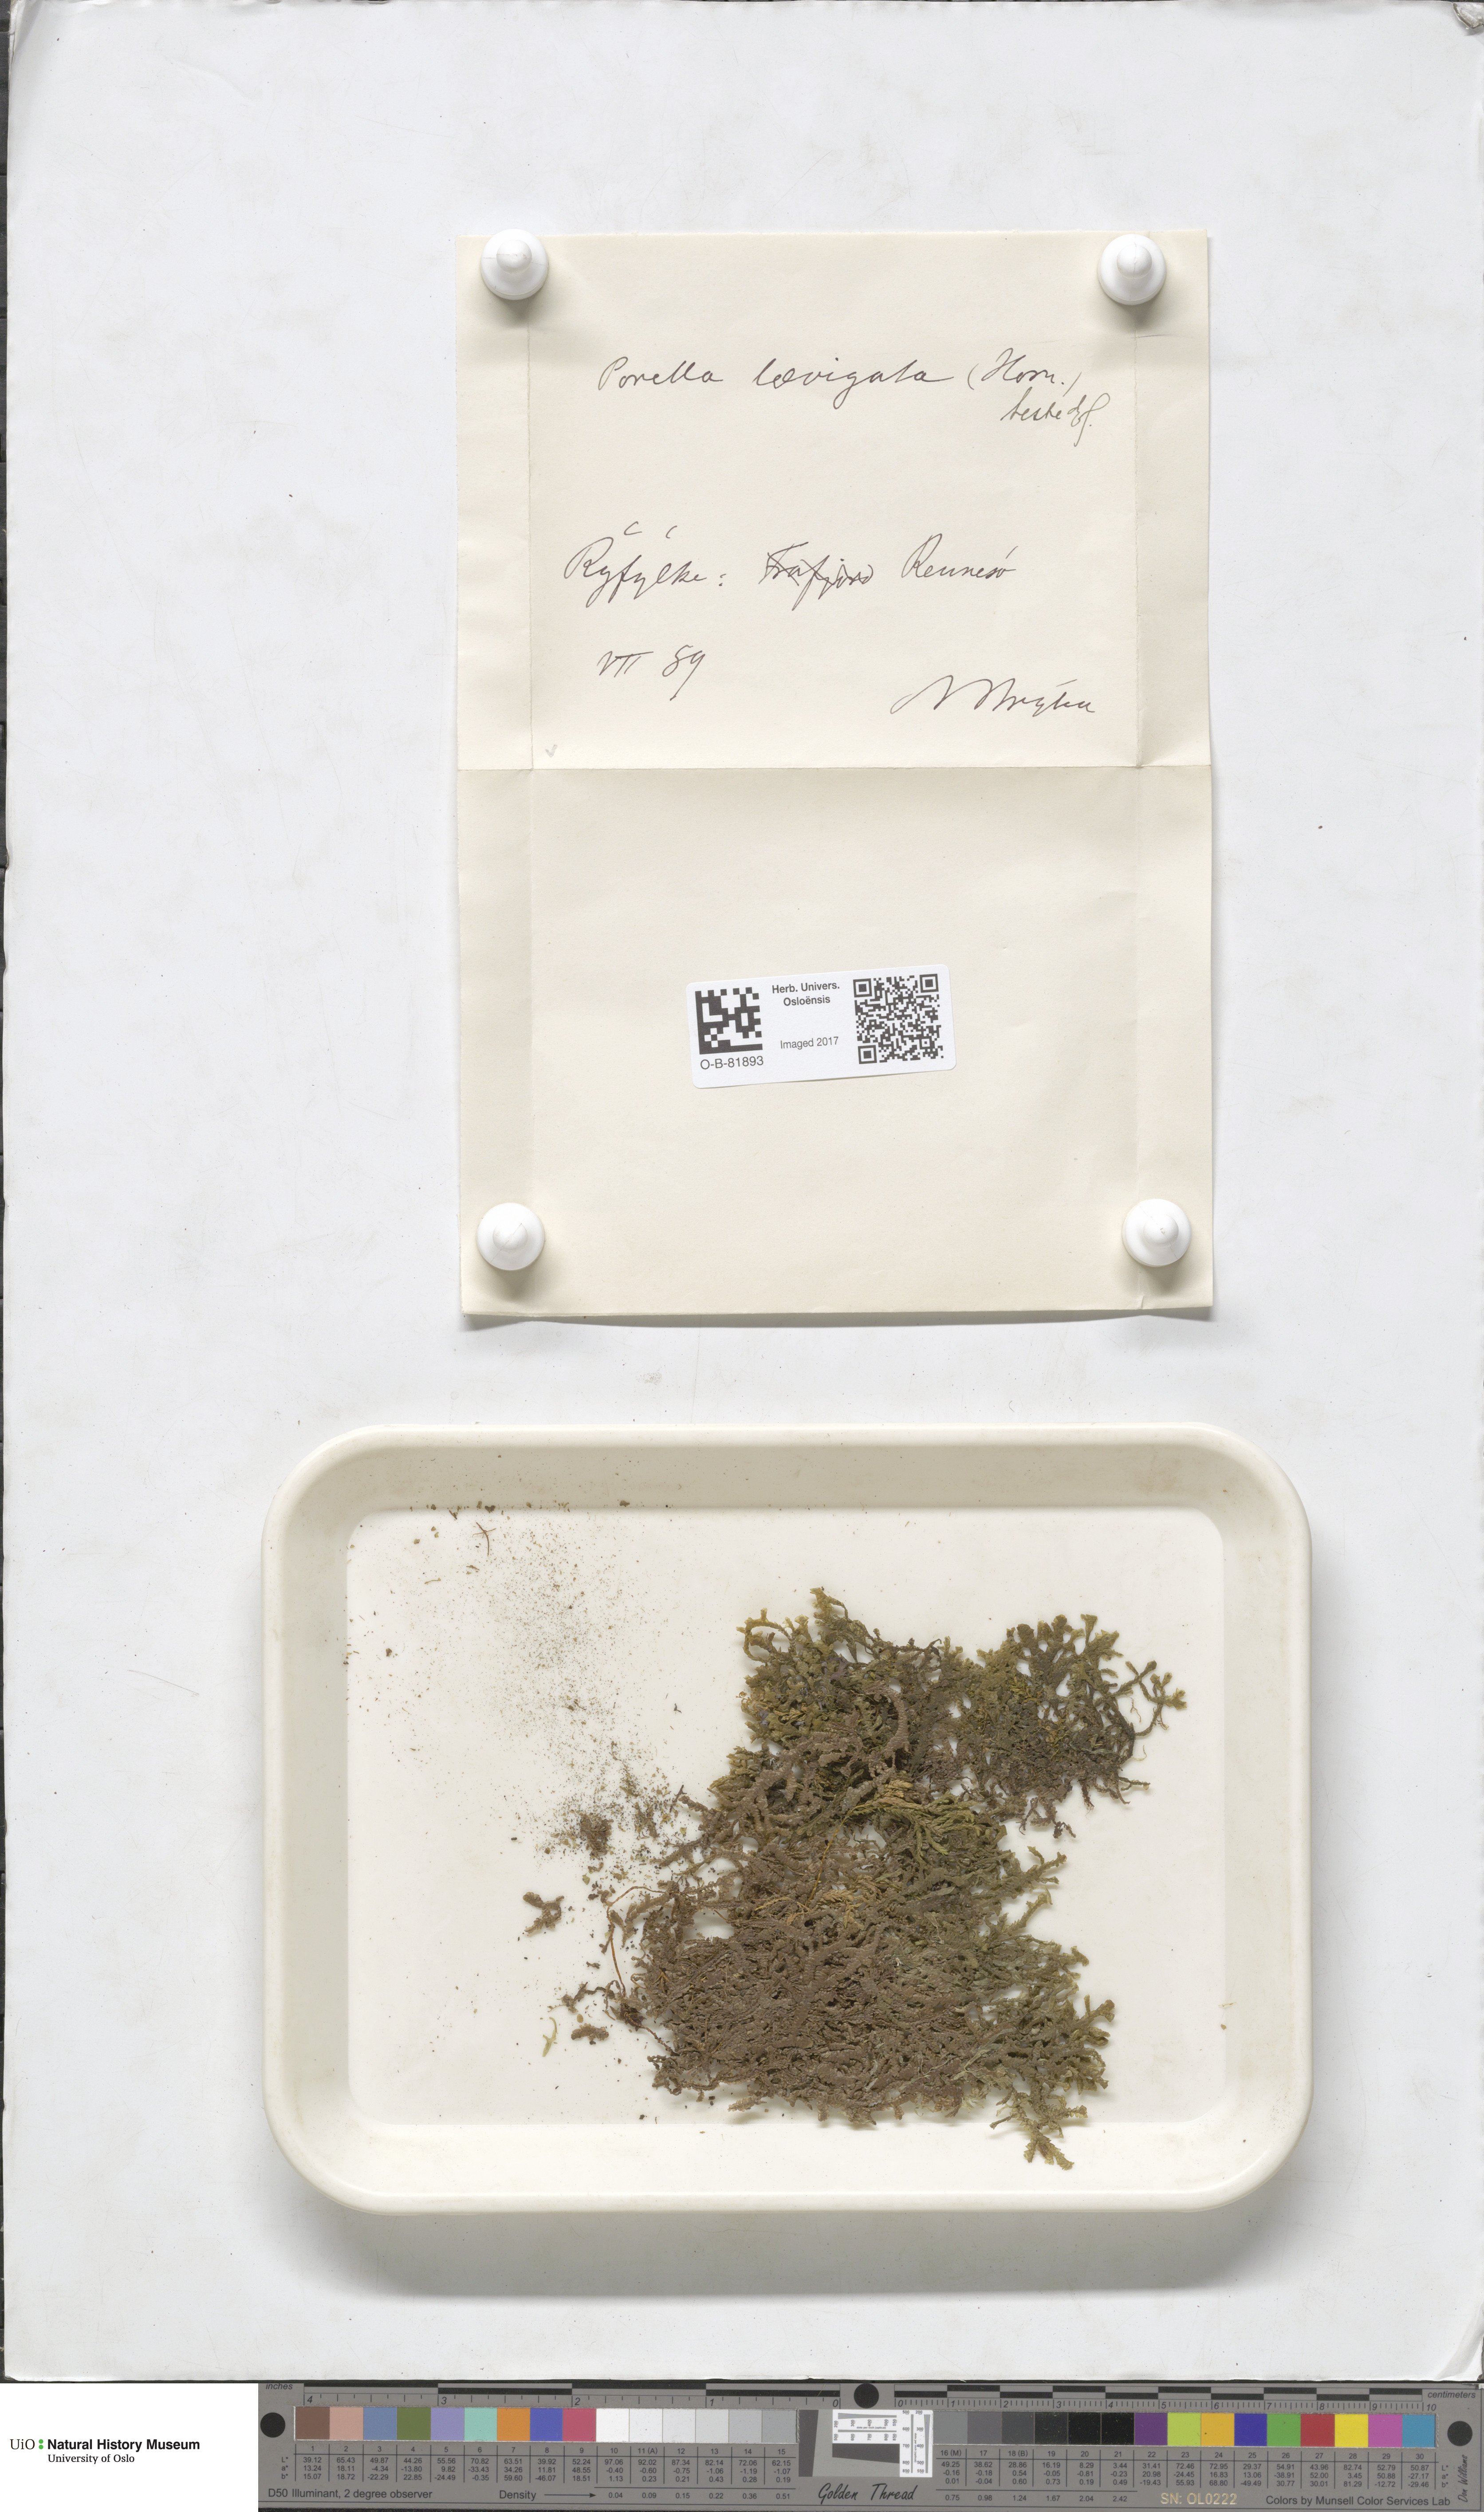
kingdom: Plantae
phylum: Marchantiophyta
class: Jungermanniopsida
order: Porellales
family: Porellaceae
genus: Porella
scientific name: Porella arboris-vitae
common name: Bitter scalewort
